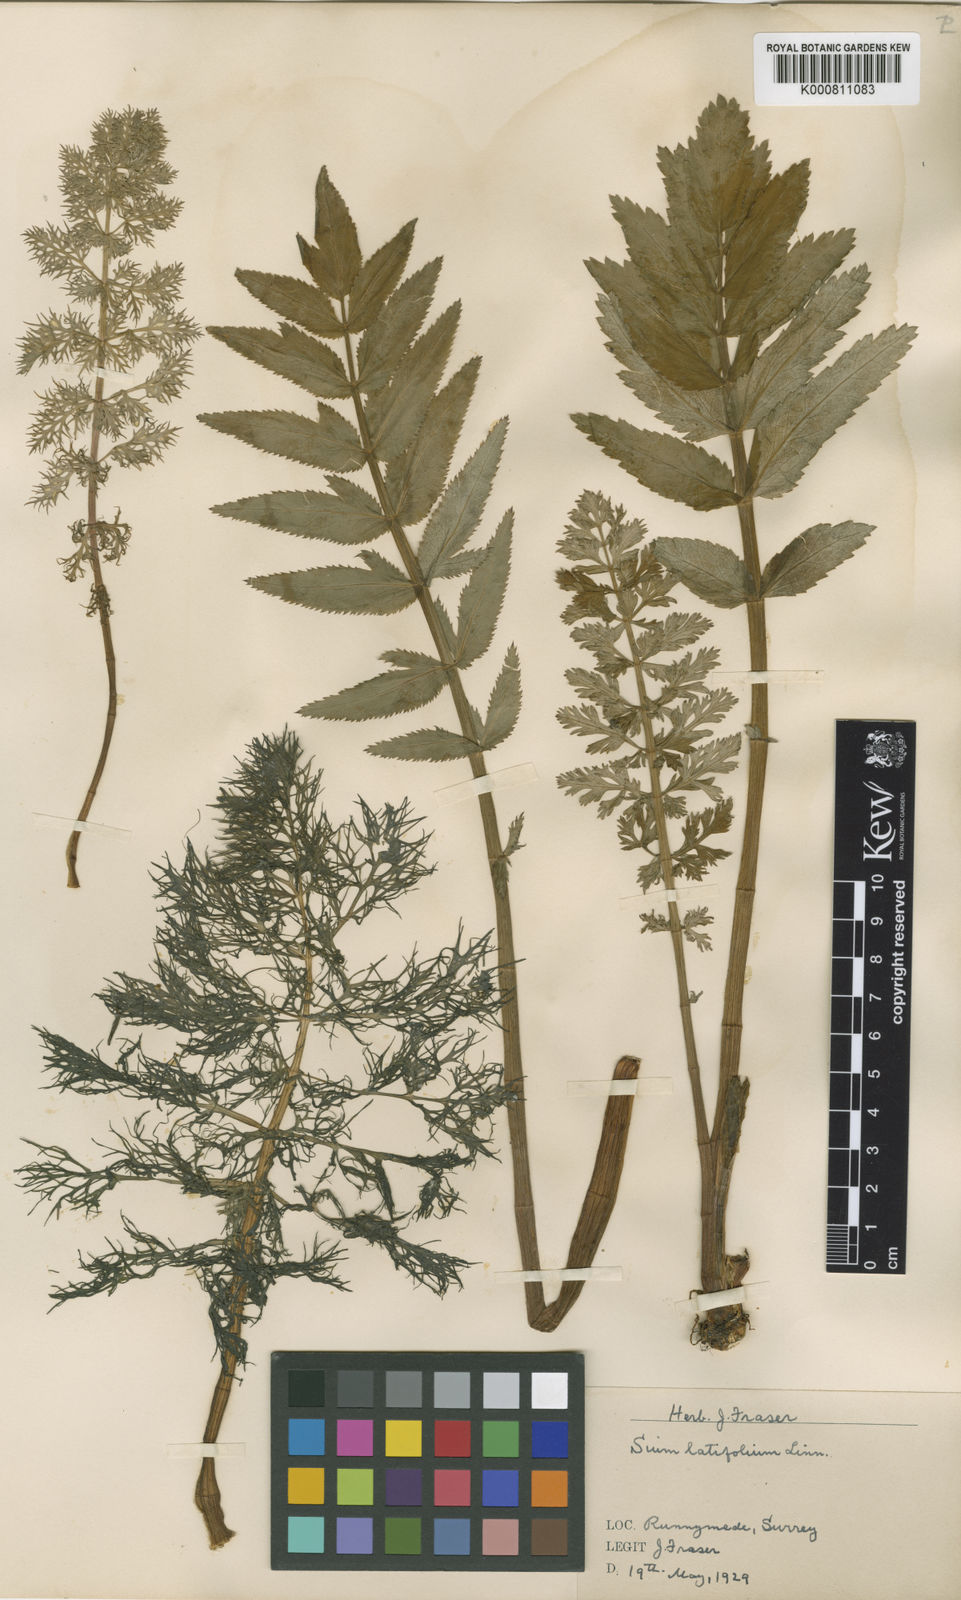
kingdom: Plantae
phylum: Tracheophyta
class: Magnoliopsida
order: Apiales
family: Apiaceae
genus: Sium
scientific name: Sium latifolium
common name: Greater water-parsnip
